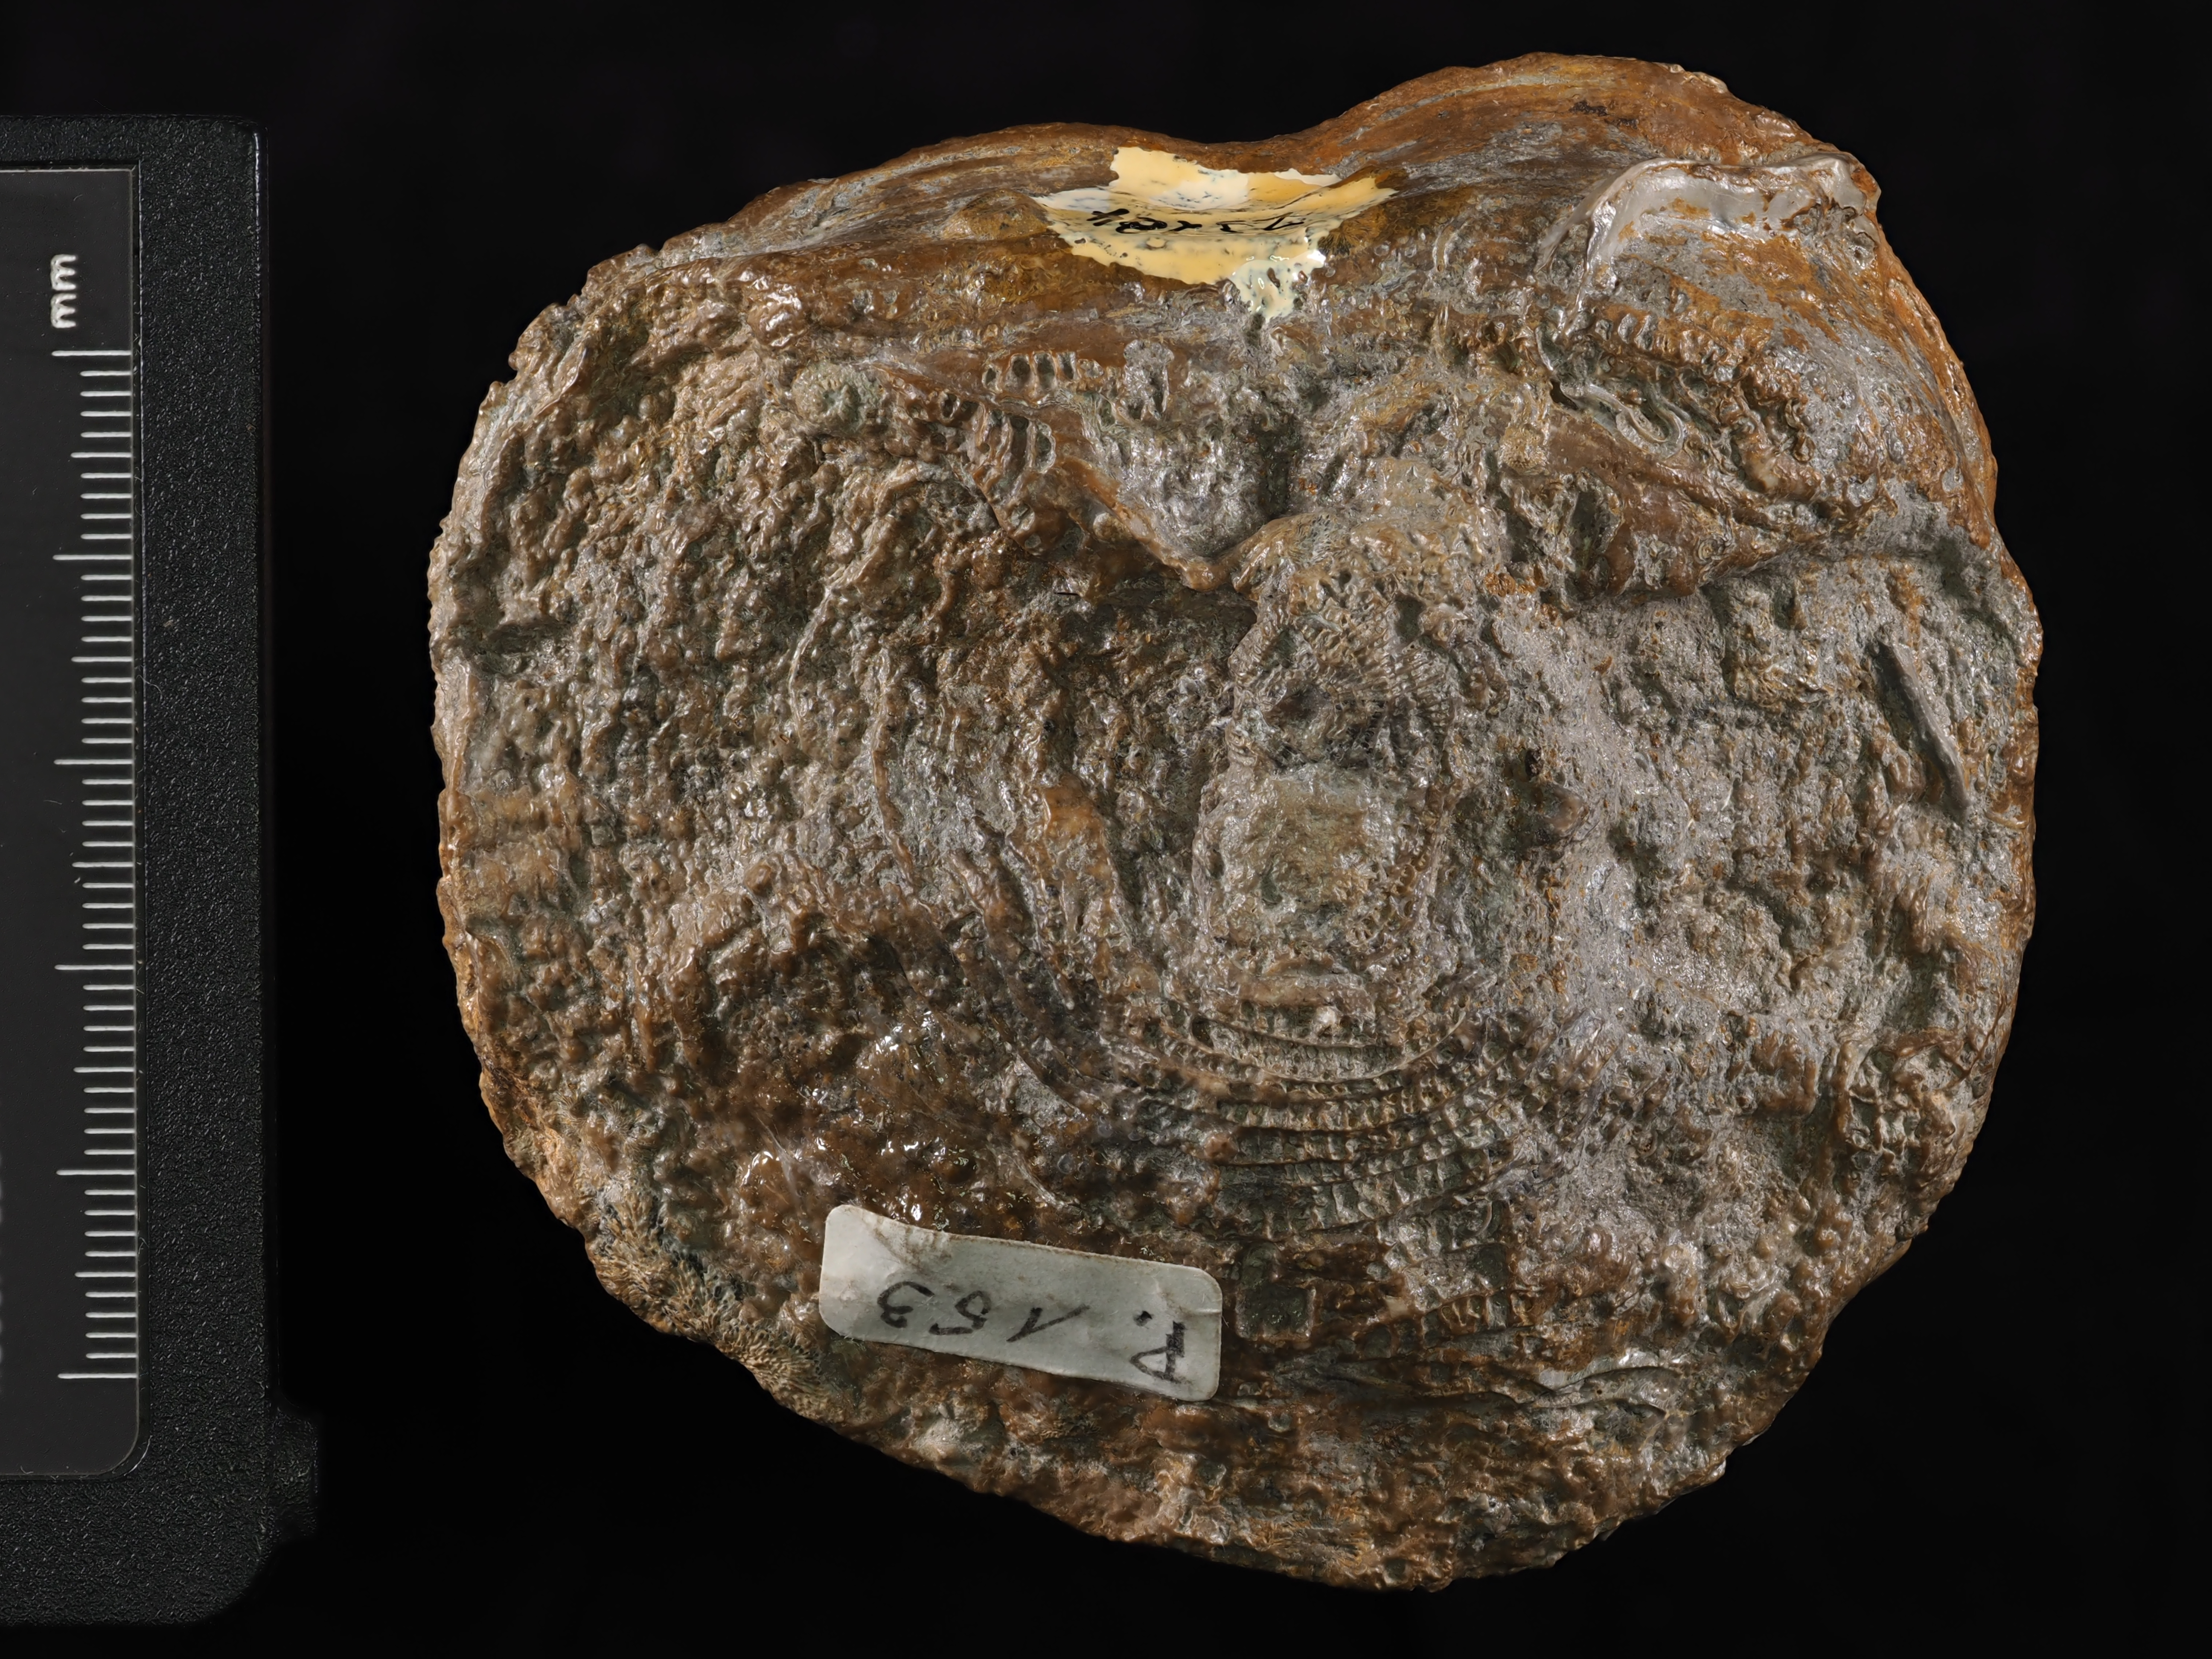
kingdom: Animalia
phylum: Cnidaria
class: Anthozoa
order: Scleractinia
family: Thecosmiliidae
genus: Complexastrea
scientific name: Complexastrea Lithodendron zollerianum
